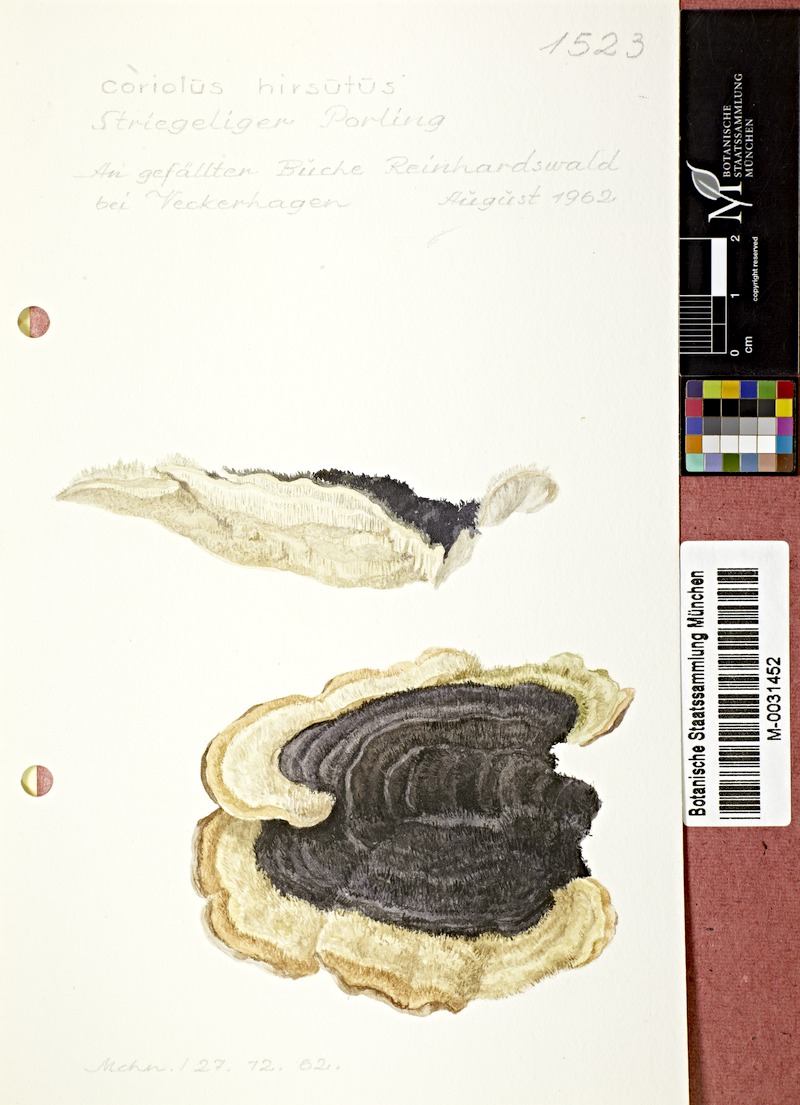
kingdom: Fungi
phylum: Basidiomycota
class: Agaricomycetes
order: Polyporales
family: Polyporaceae
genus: Trametes
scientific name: Trametes hirsuta
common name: Hairy bracket
